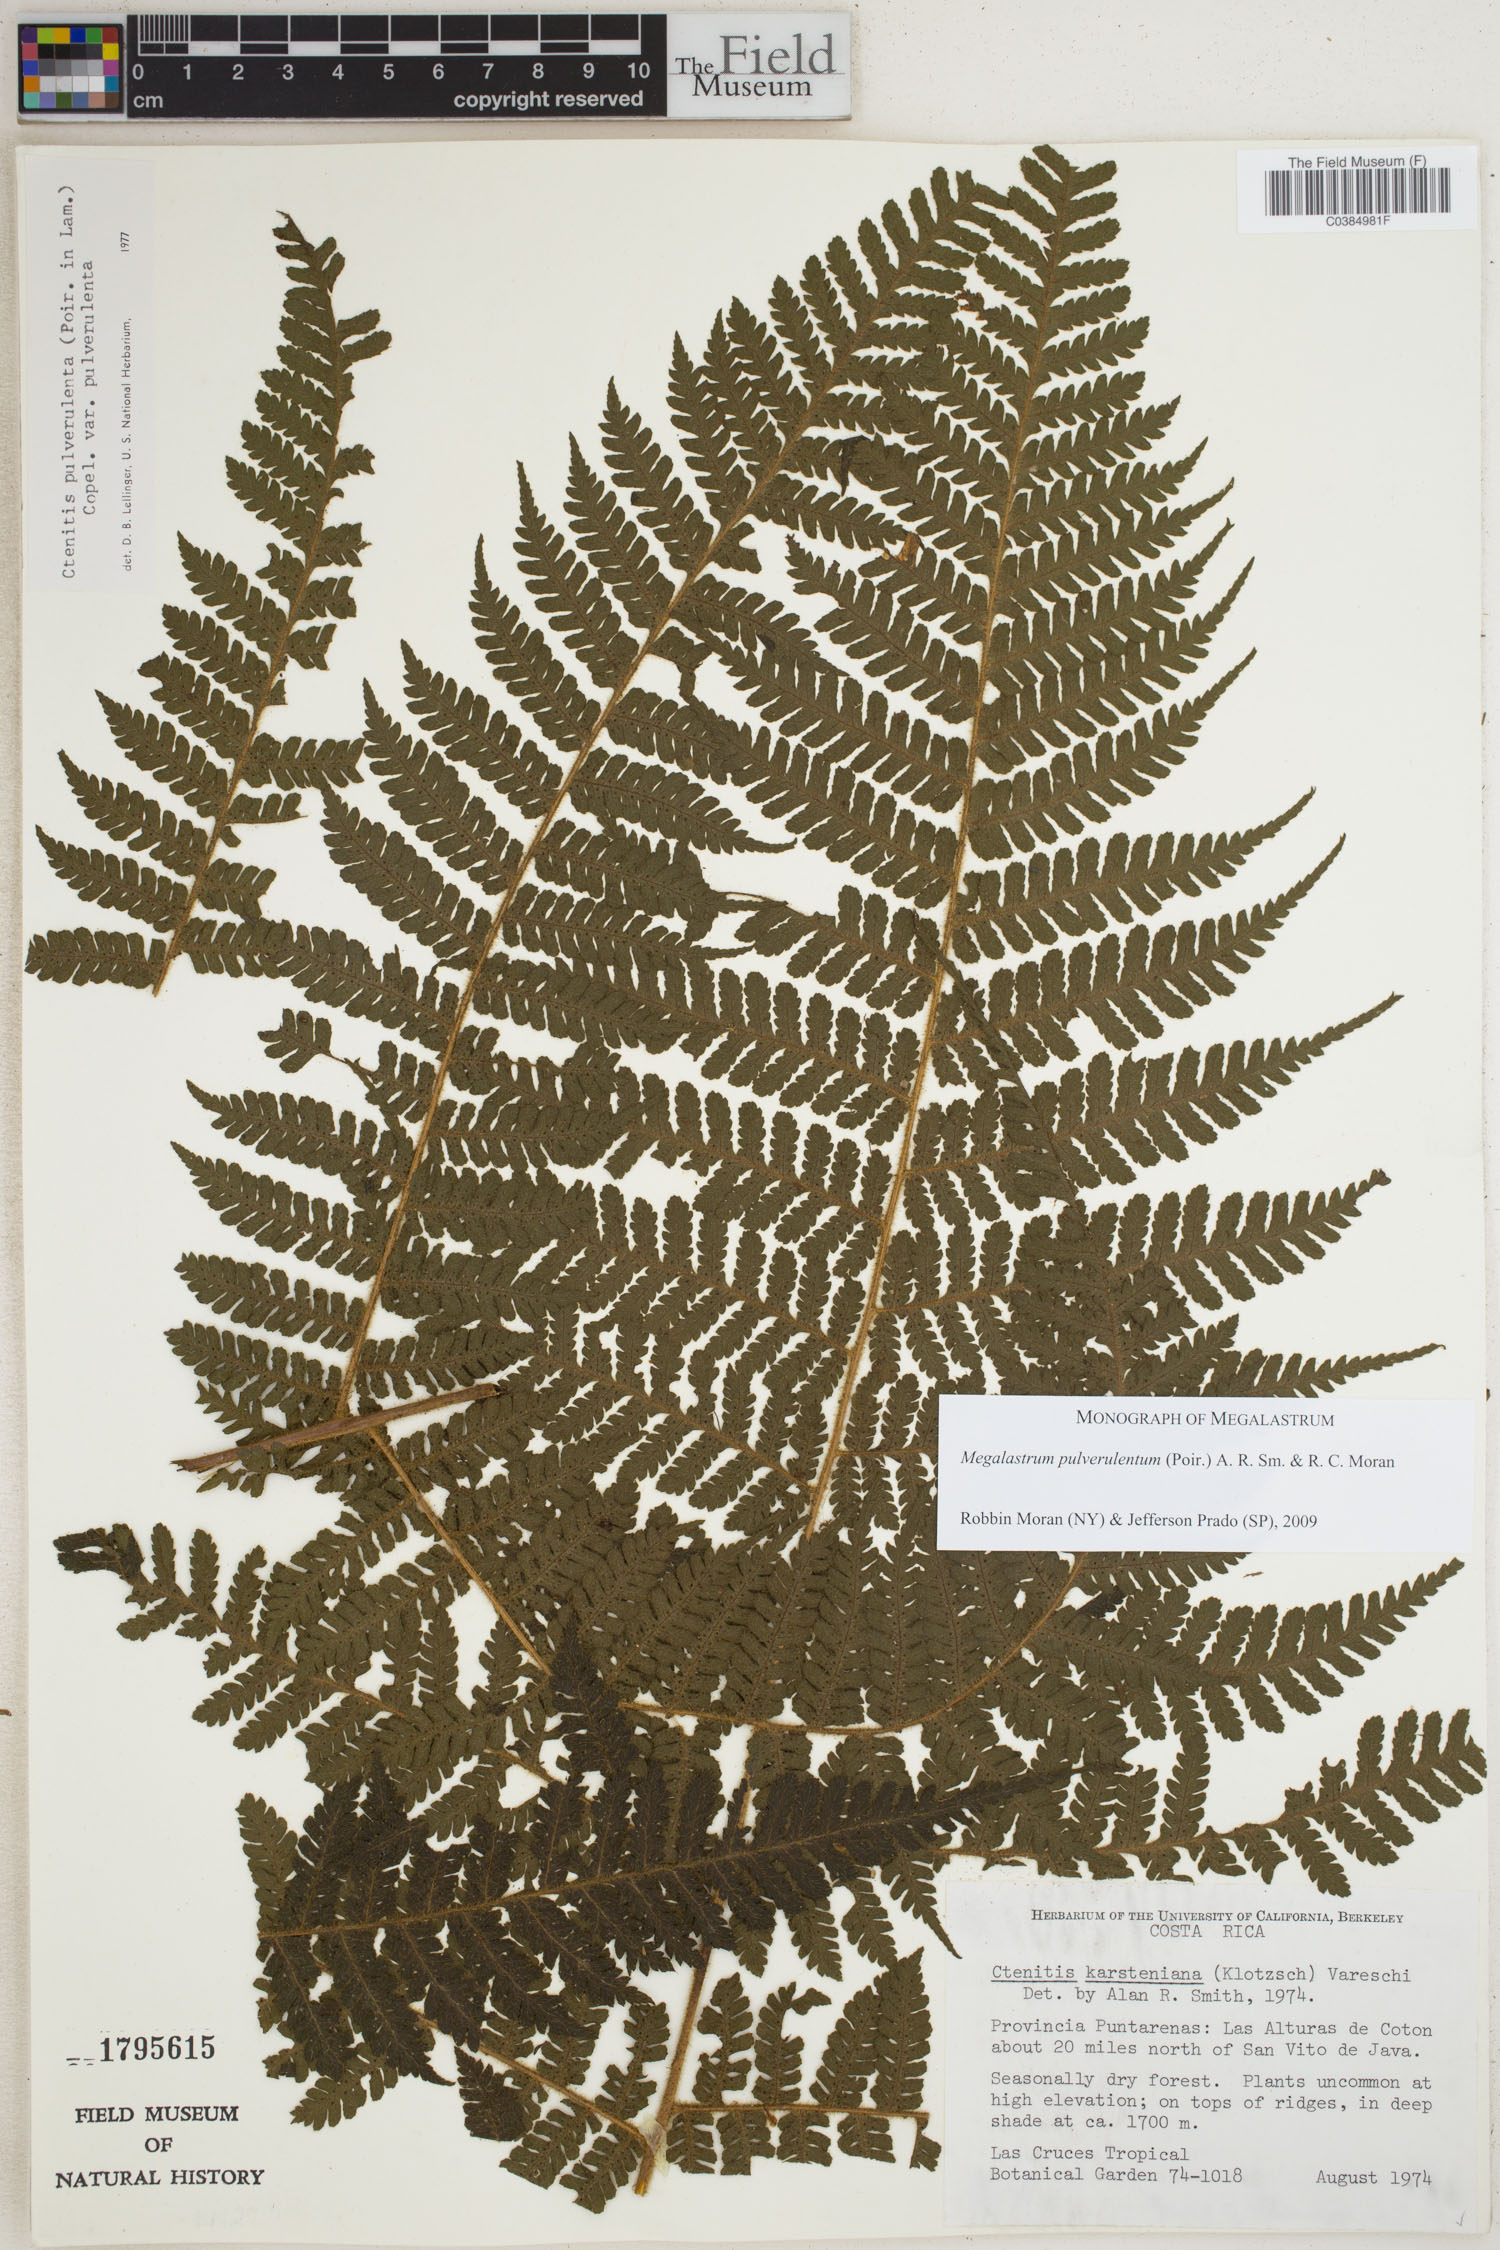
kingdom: Plantae
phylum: Tracheophyta
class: Polypodiopsida
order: Polypodiales
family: Dryopteridaceae
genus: Megalastrum
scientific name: Megalastrum pulverulentum
